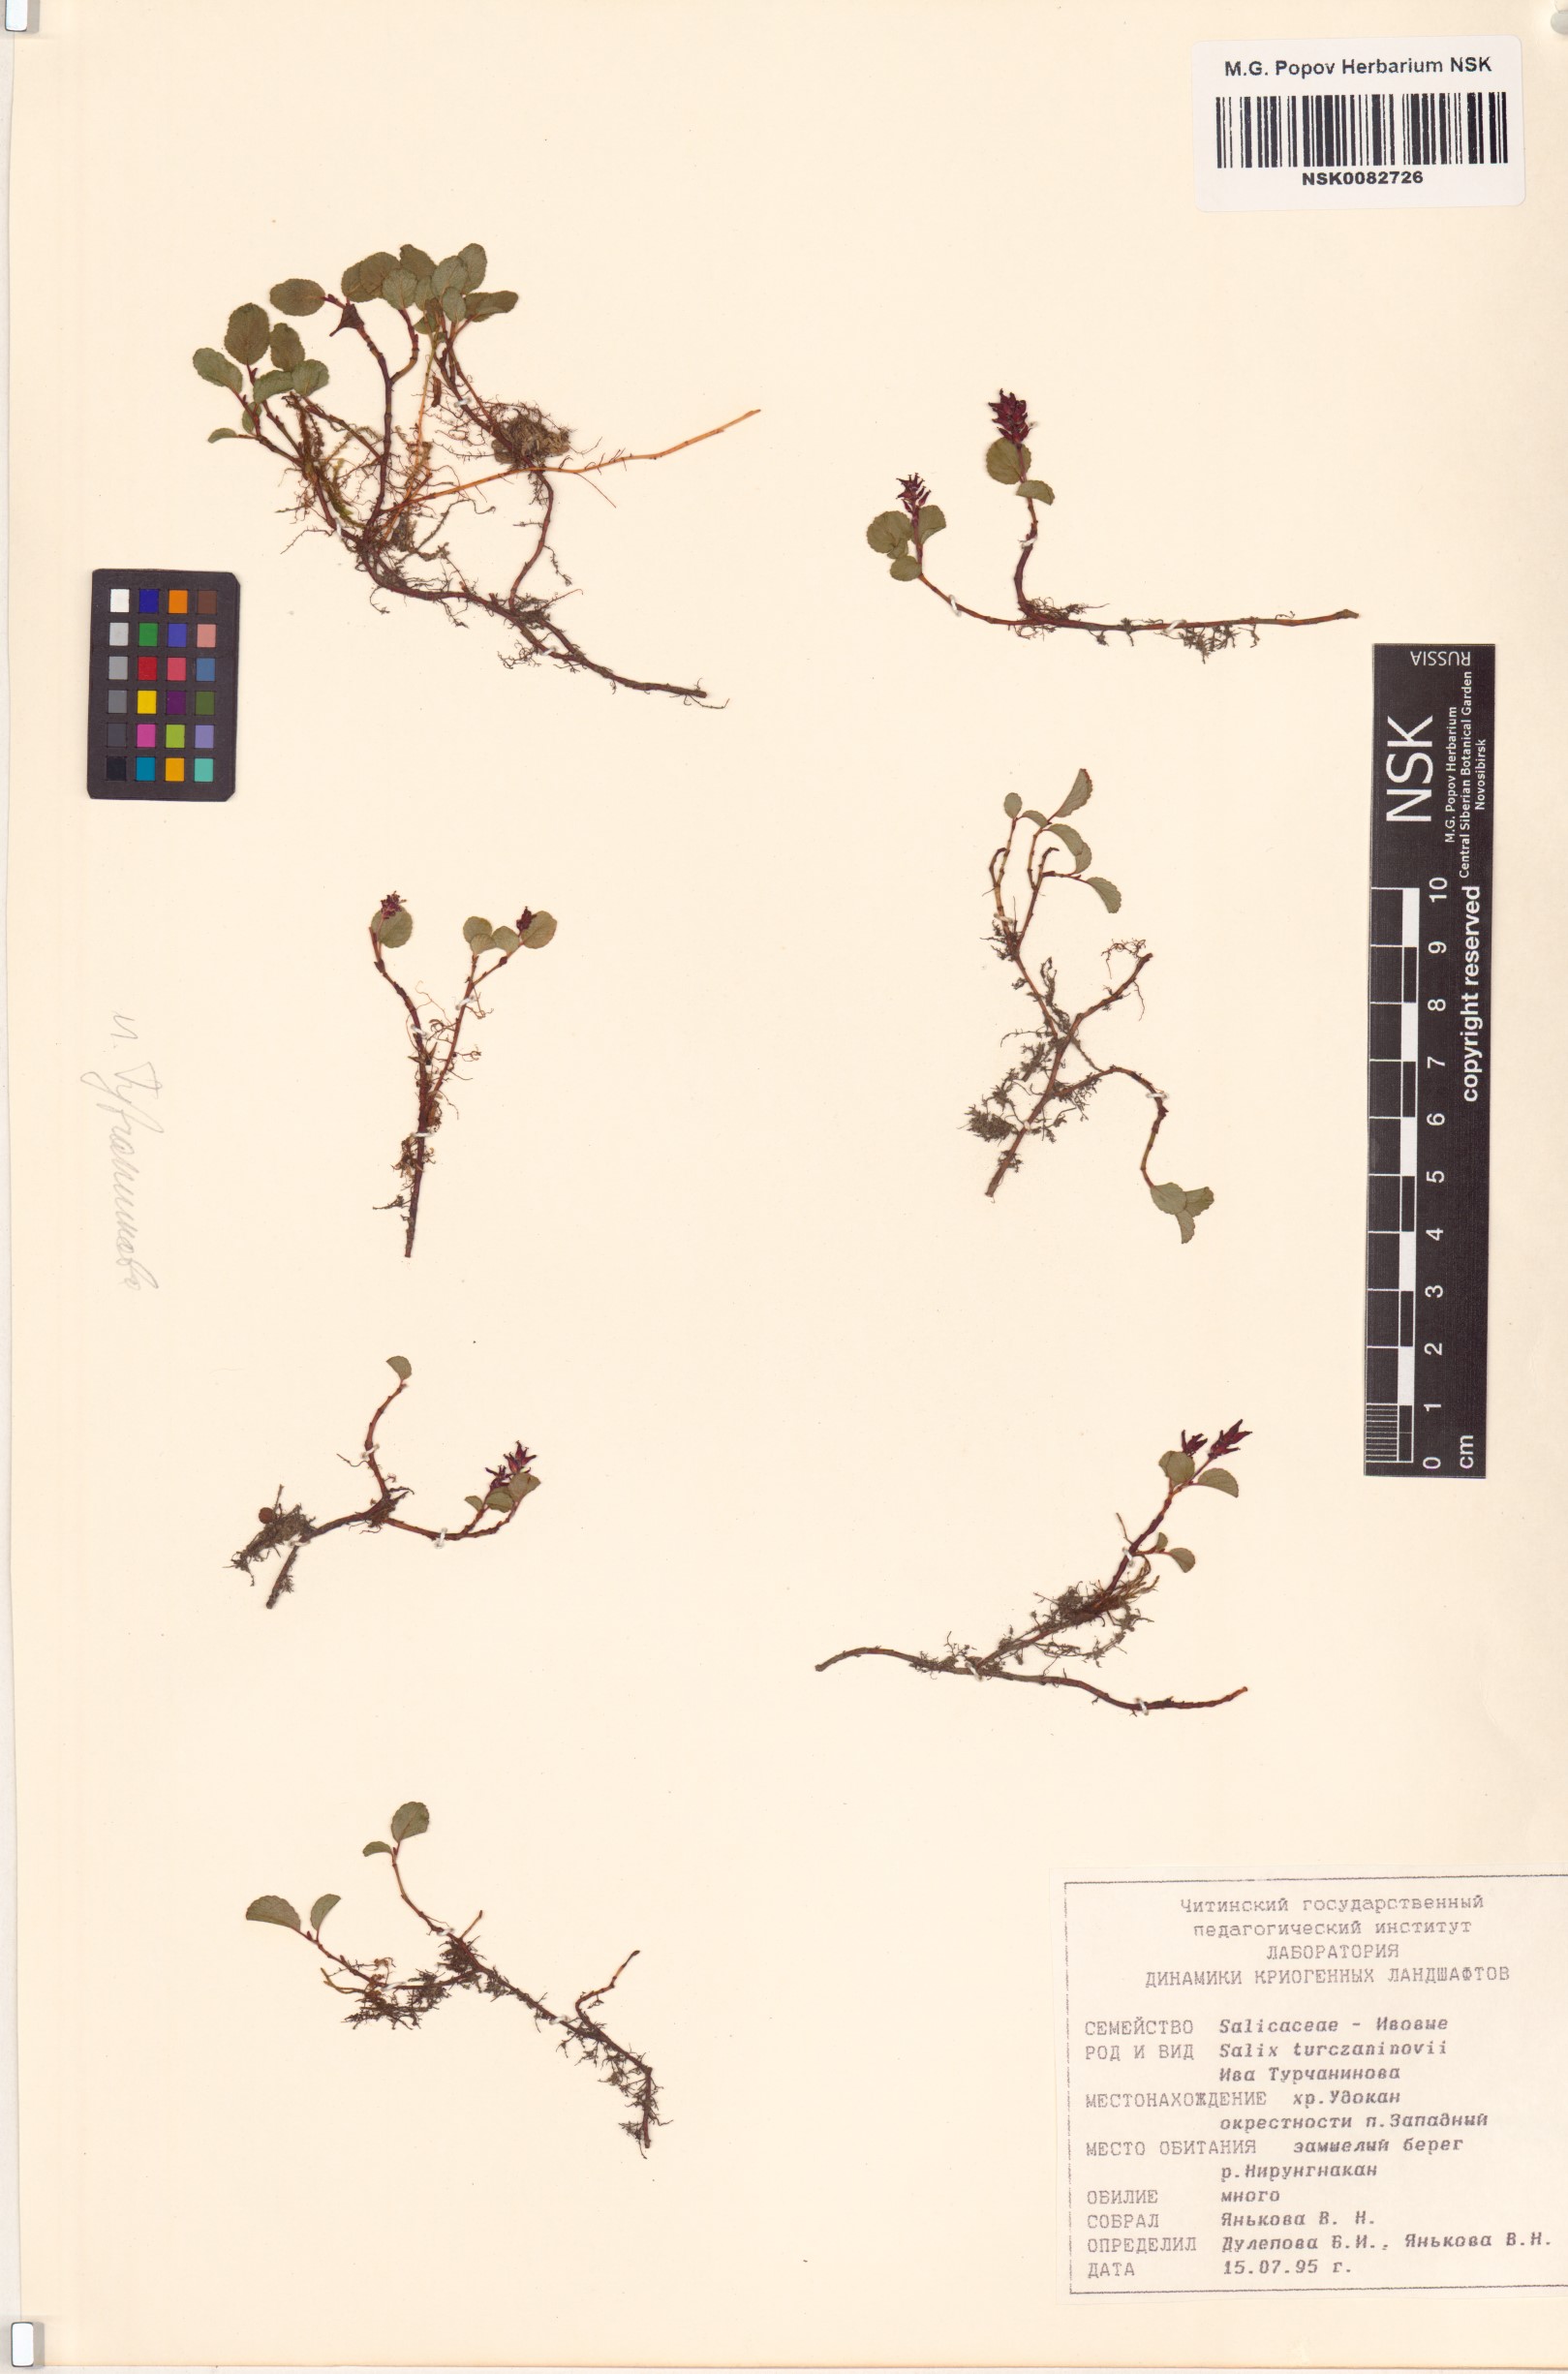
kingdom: Plantae
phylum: Tracheophyta
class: Magnoliopsida
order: Malpighiales
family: Salicaceae
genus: Salix
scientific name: Salix turczaninowii
